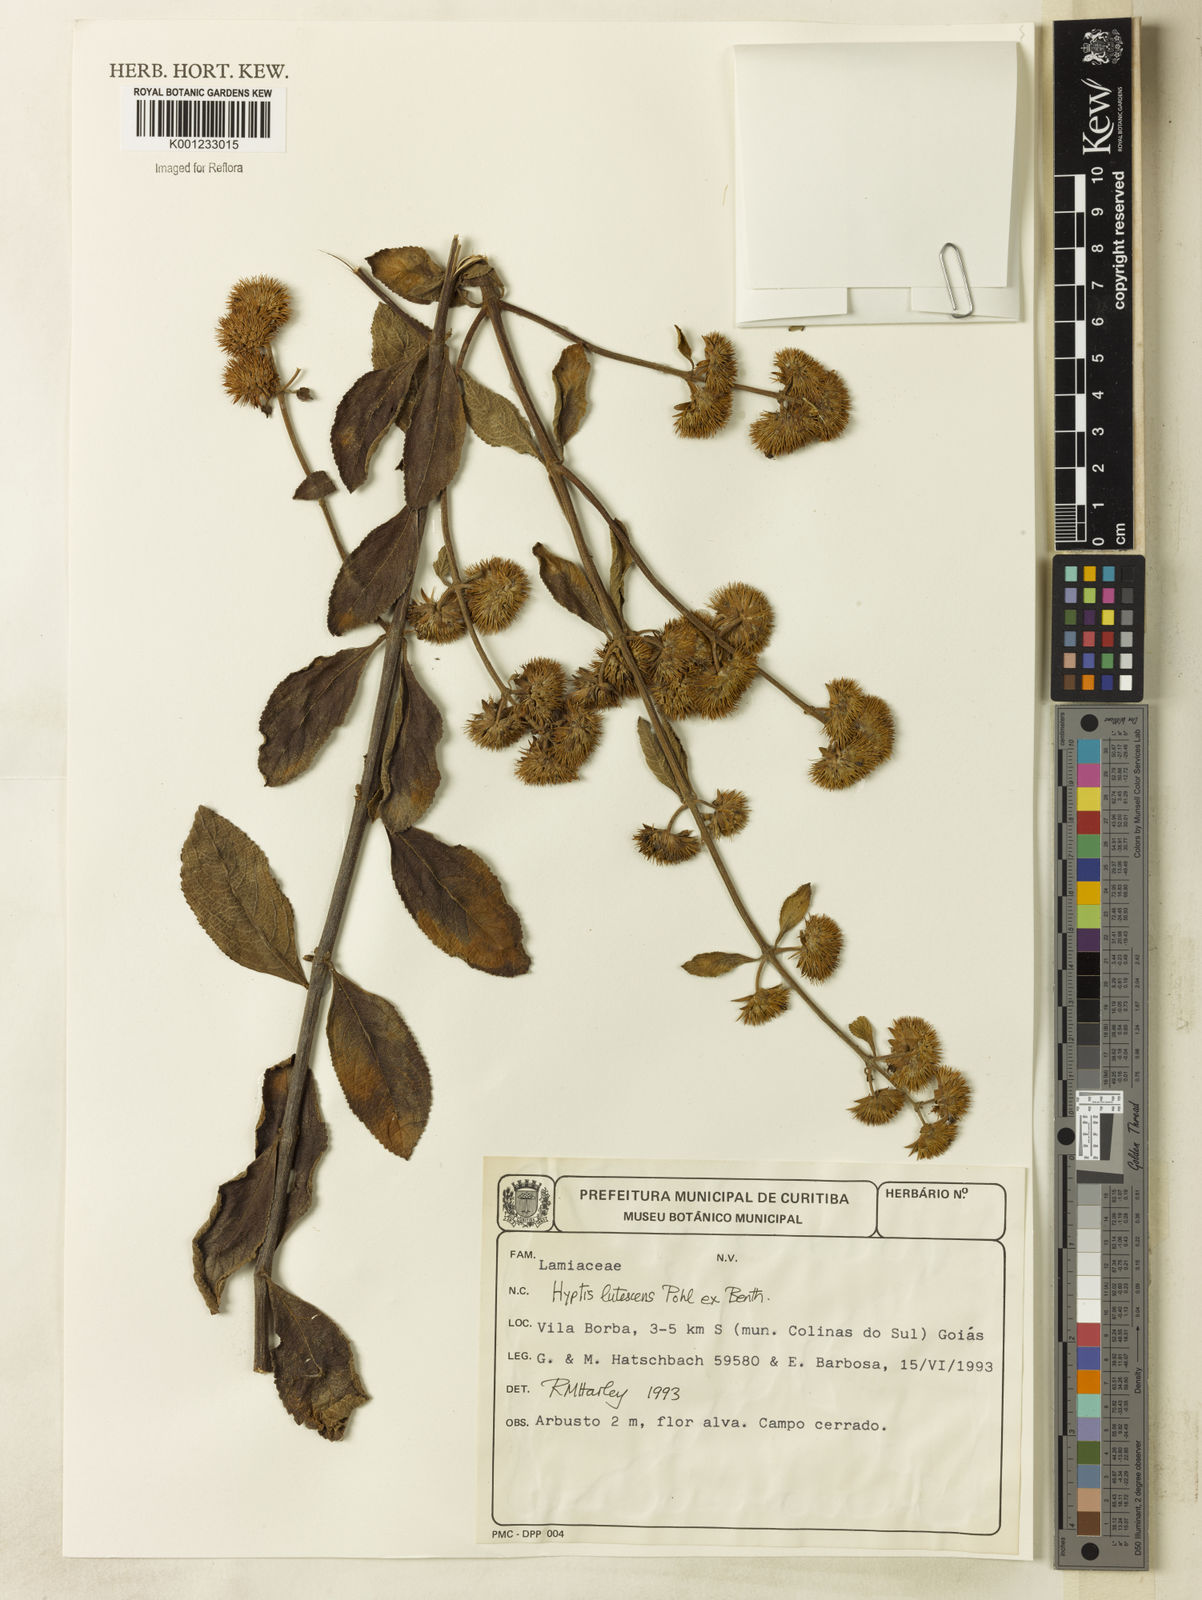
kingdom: Plantae
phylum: Tracheophyta
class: Magnoliopsida
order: Lamiales
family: Lamiaceae
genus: Hyptis
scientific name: Hyptis lutescens
